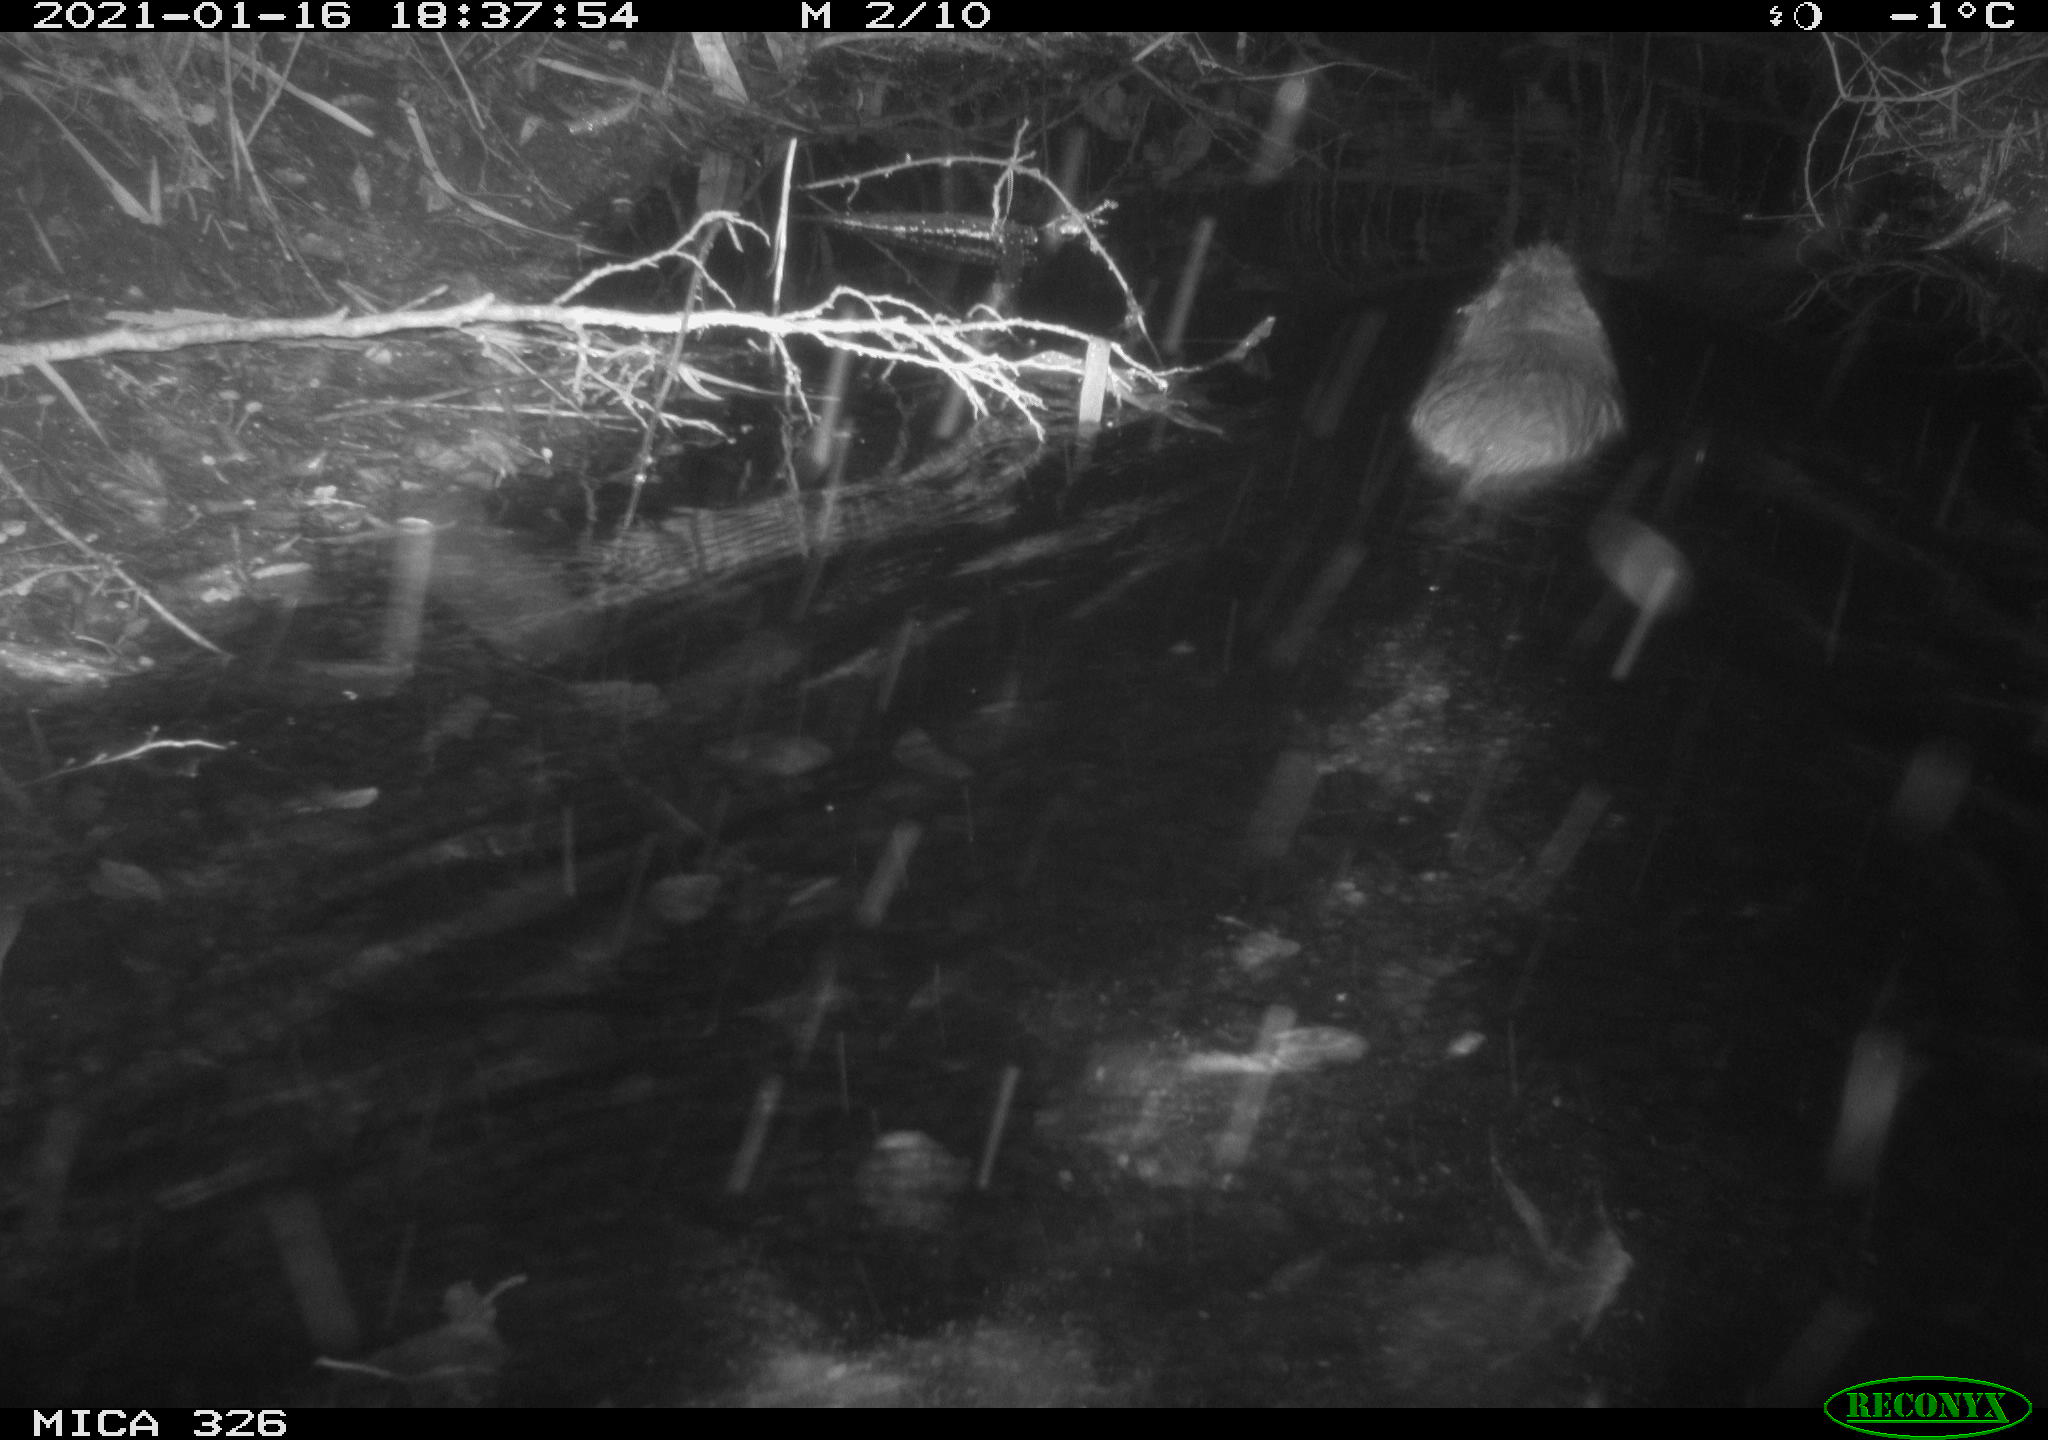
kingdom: Animalia
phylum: Chordata
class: Mammalia
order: Rodentia
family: Myocastoridae
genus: Myocastor
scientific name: Myocastor coypus
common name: Coypu
